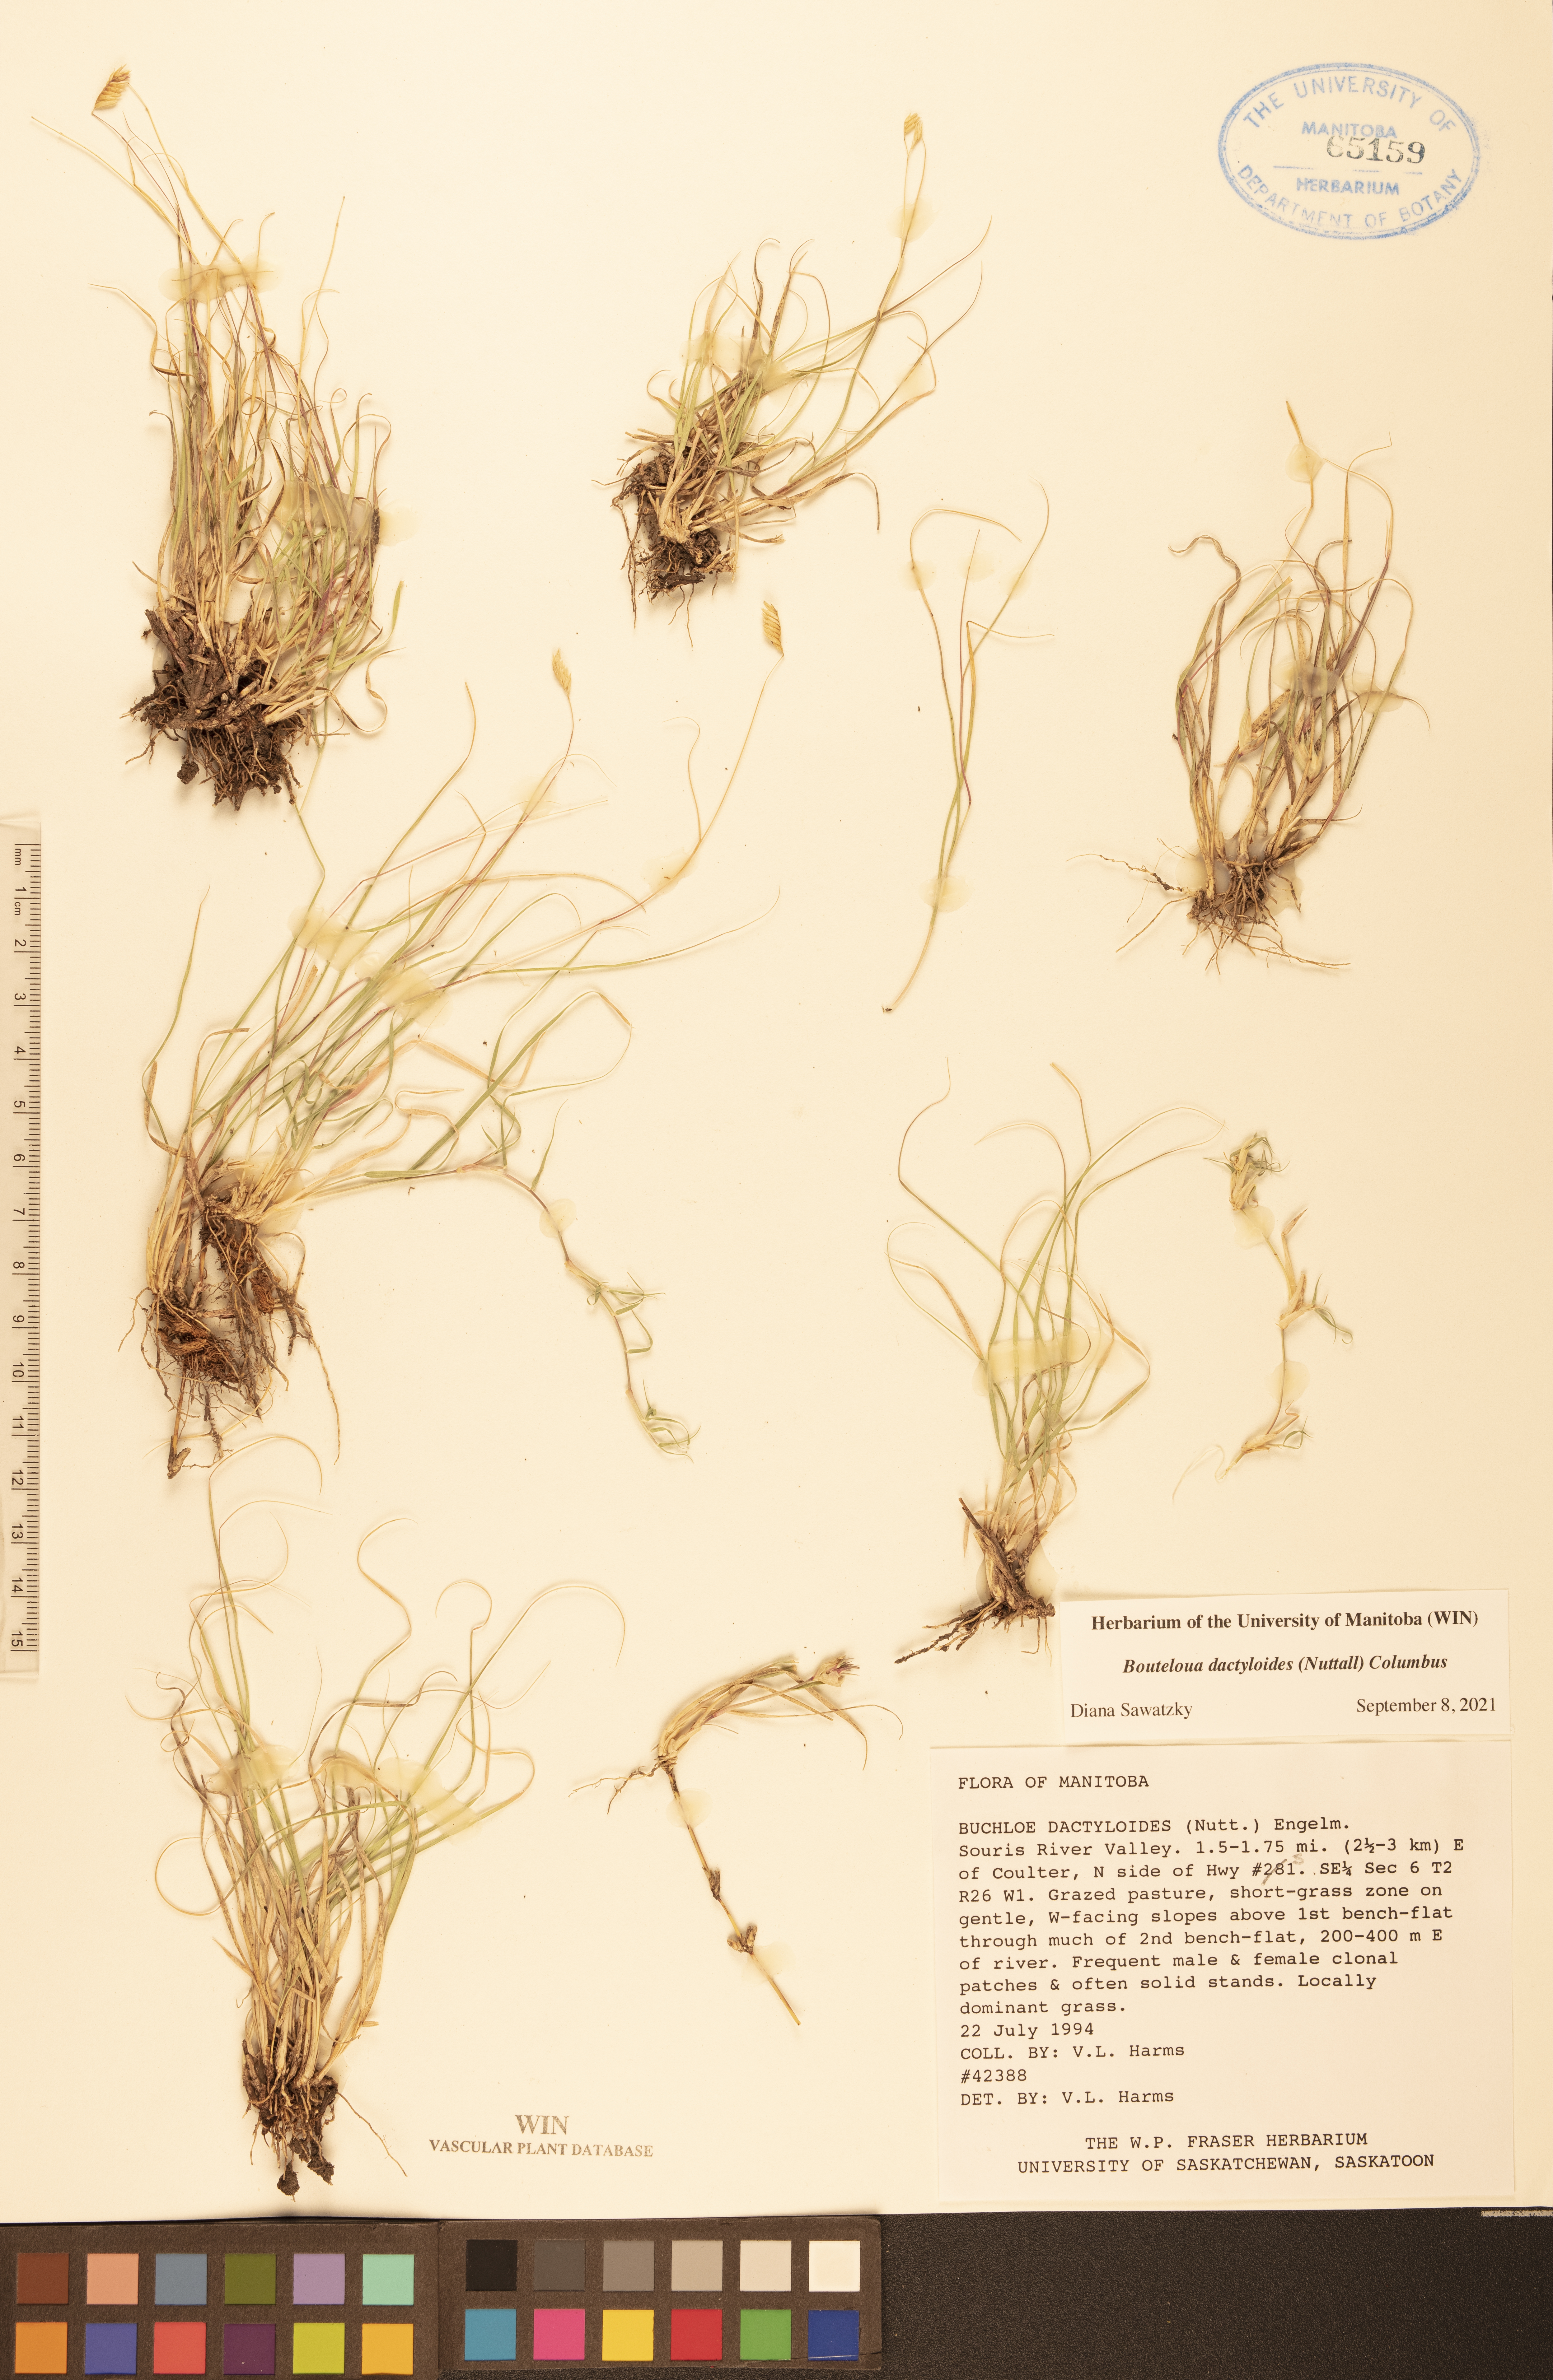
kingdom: Plantae
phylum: Tracheophyta
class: Liliopsida
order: Poales
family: Poaceae
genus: Bouteloua
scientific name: Bouteloua dactyloides
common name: Buffalo grass
